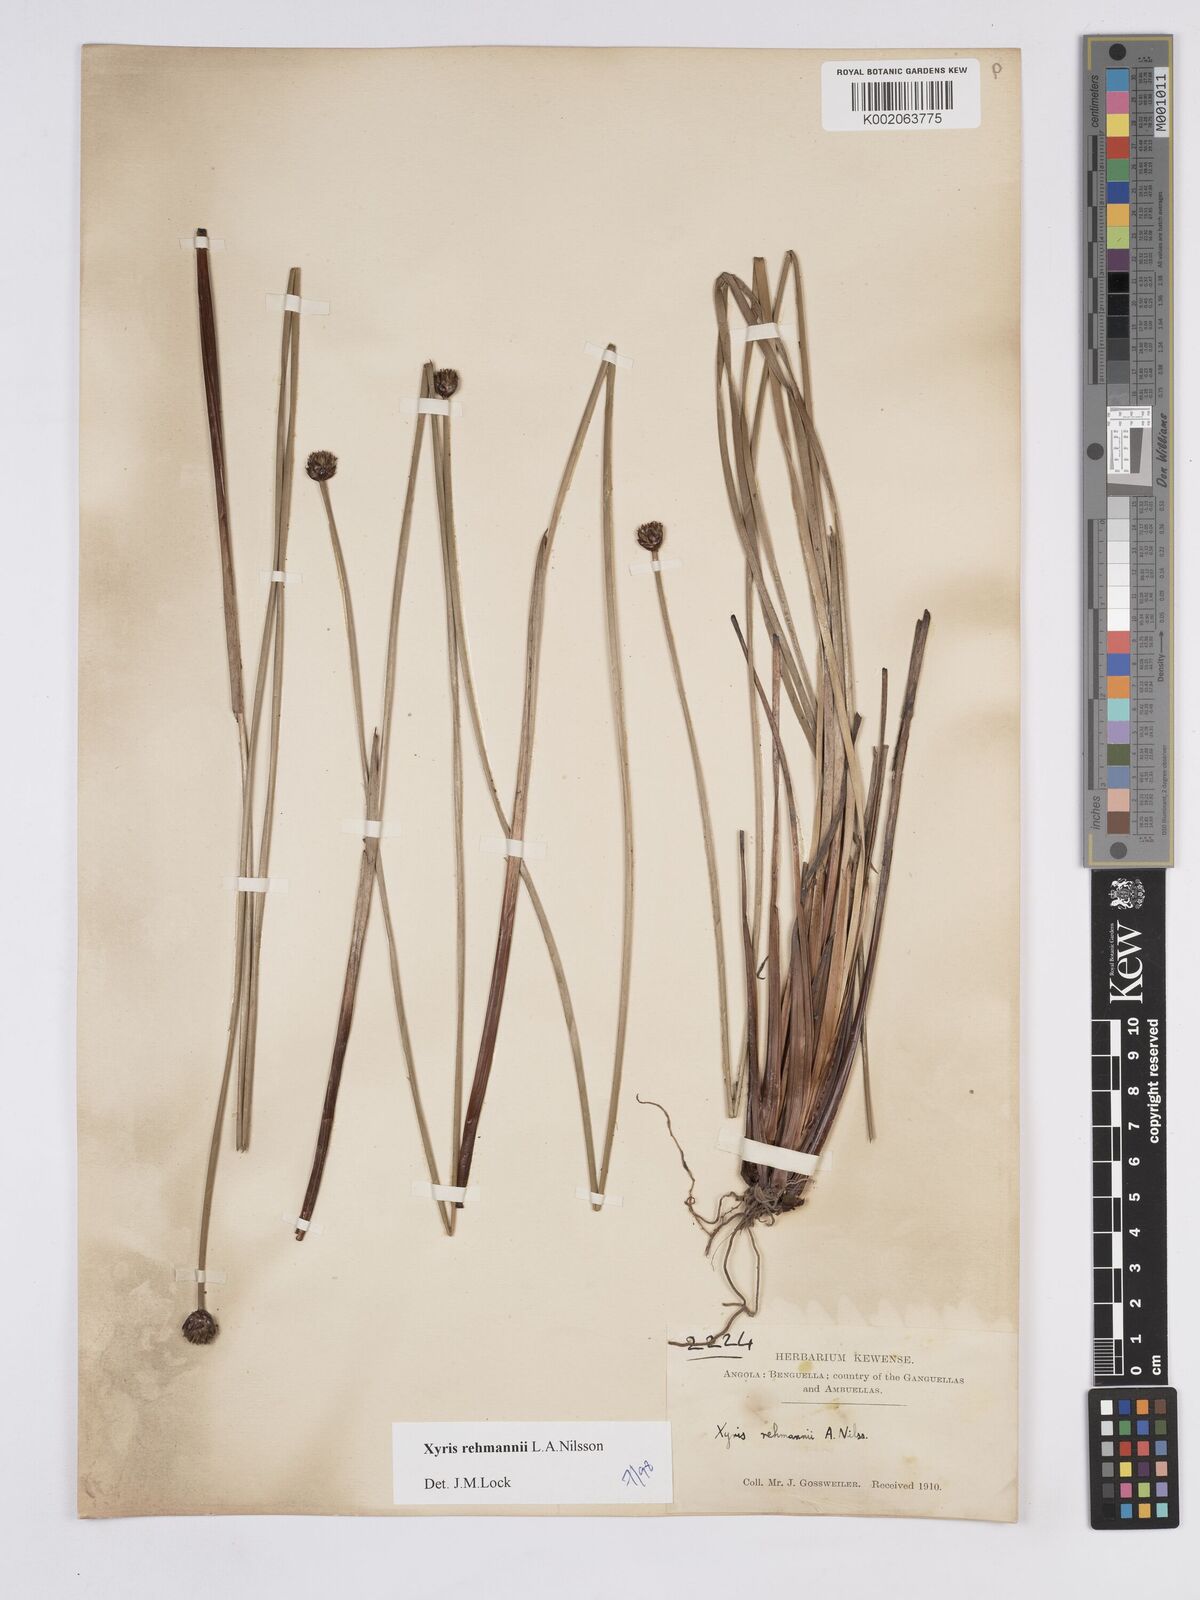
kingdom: Plantae
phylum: Tracheophyta
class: Liliopsida
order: Poales
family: Xyridaceae
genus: Xyris
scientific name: Xyris rehmannii
